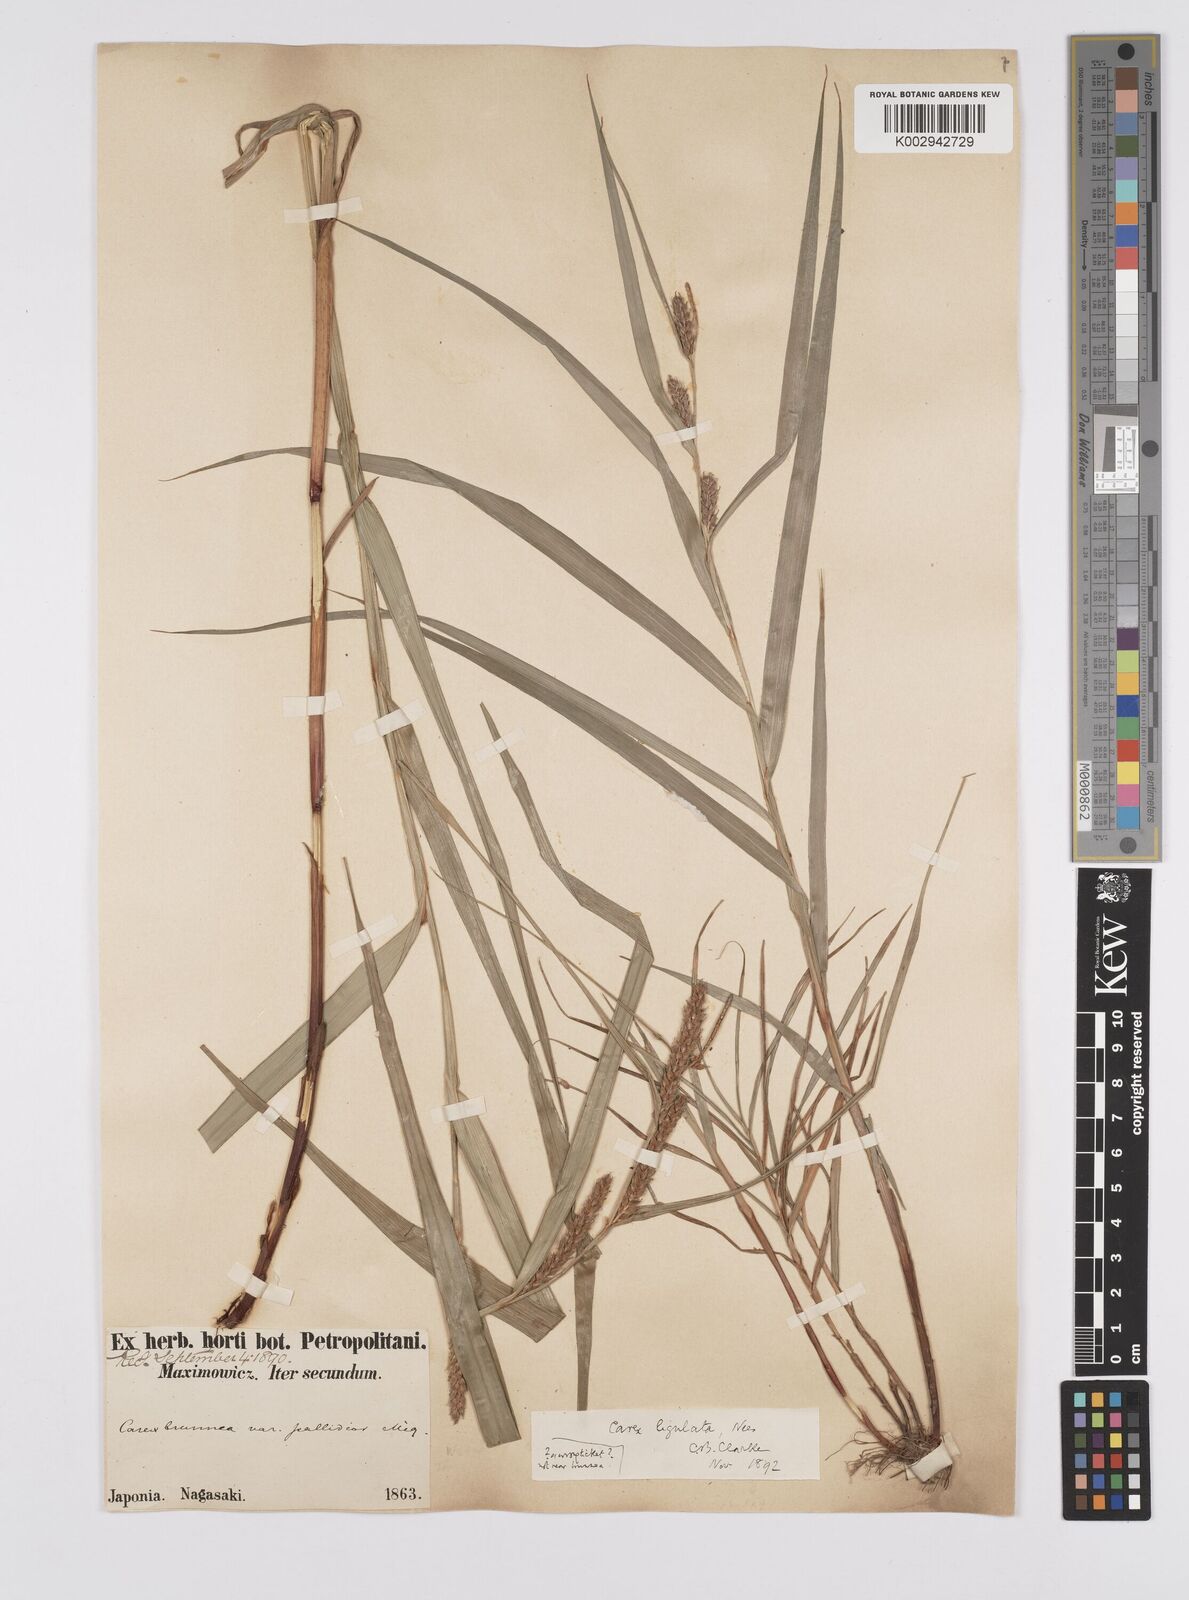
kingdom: Plantae
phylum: Tracheophyta
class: Liliopsida
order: Poales
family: Cyperaceae
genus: Carex
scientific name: Carex ligulata
